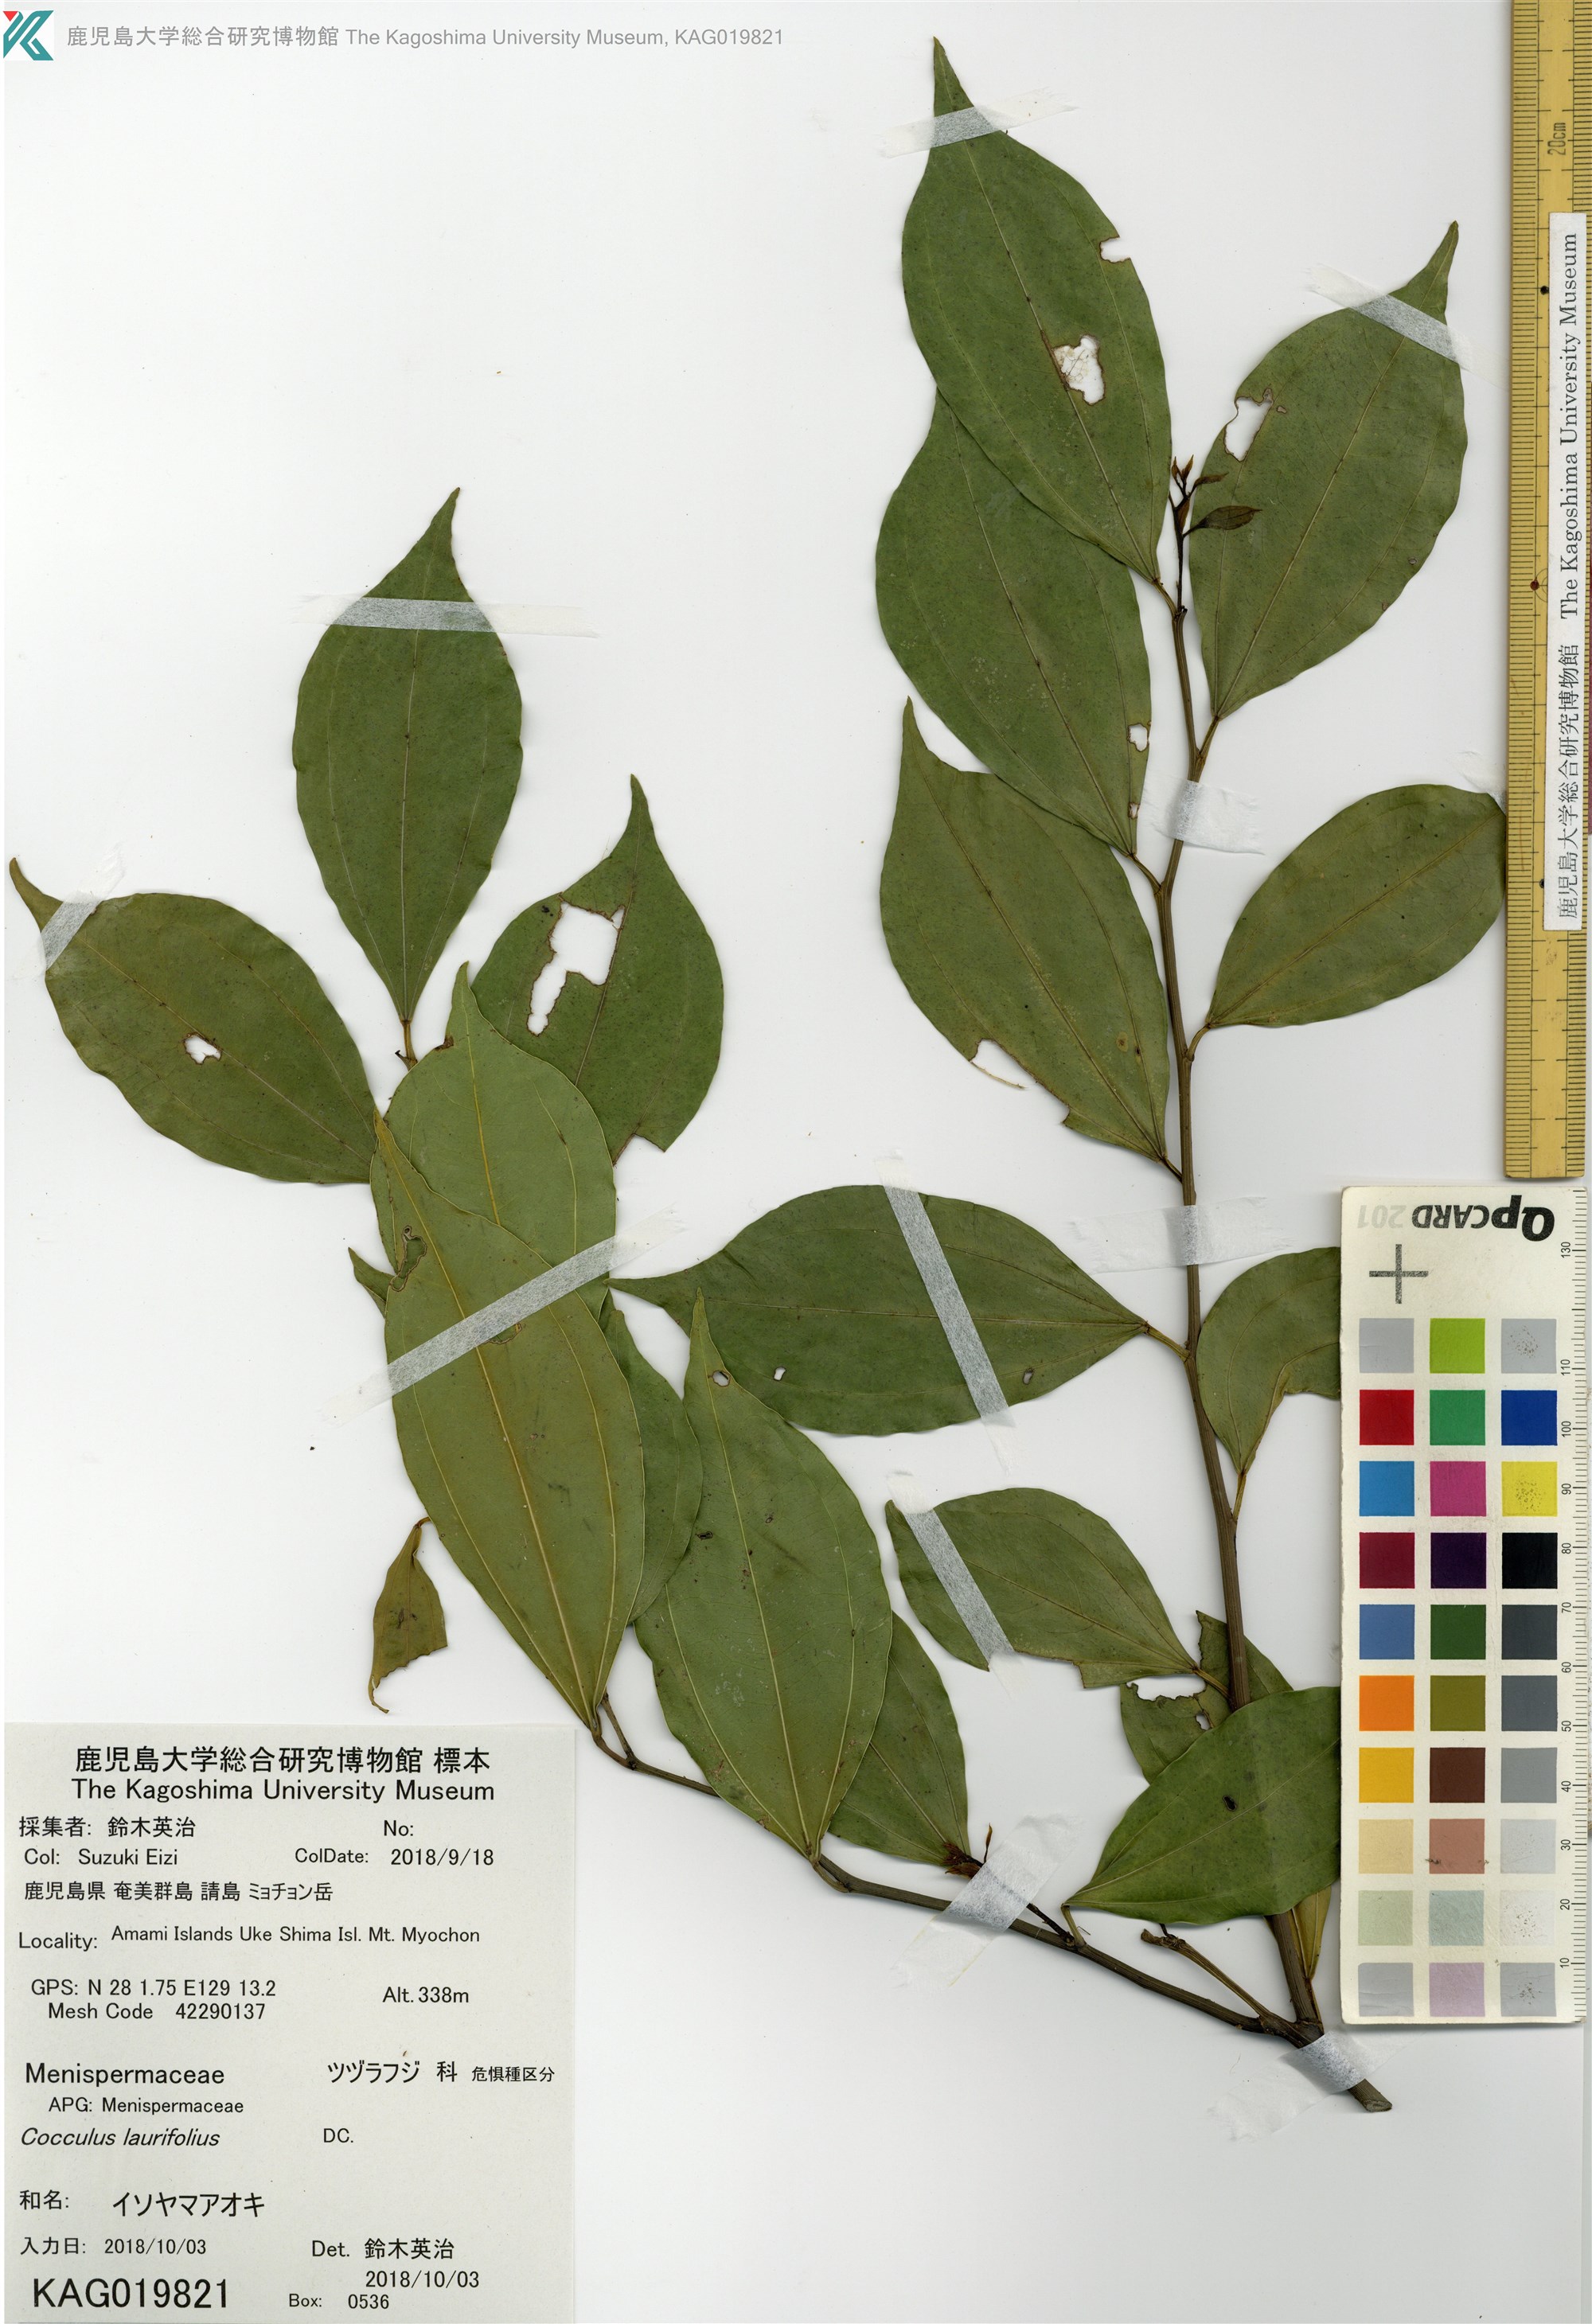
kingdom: Plantae
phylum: Tracheophyta
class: Magnoliopsida
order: Ranunculales
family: Menispermaceae
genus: Cocculus
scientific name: Cocculus laurifolius
